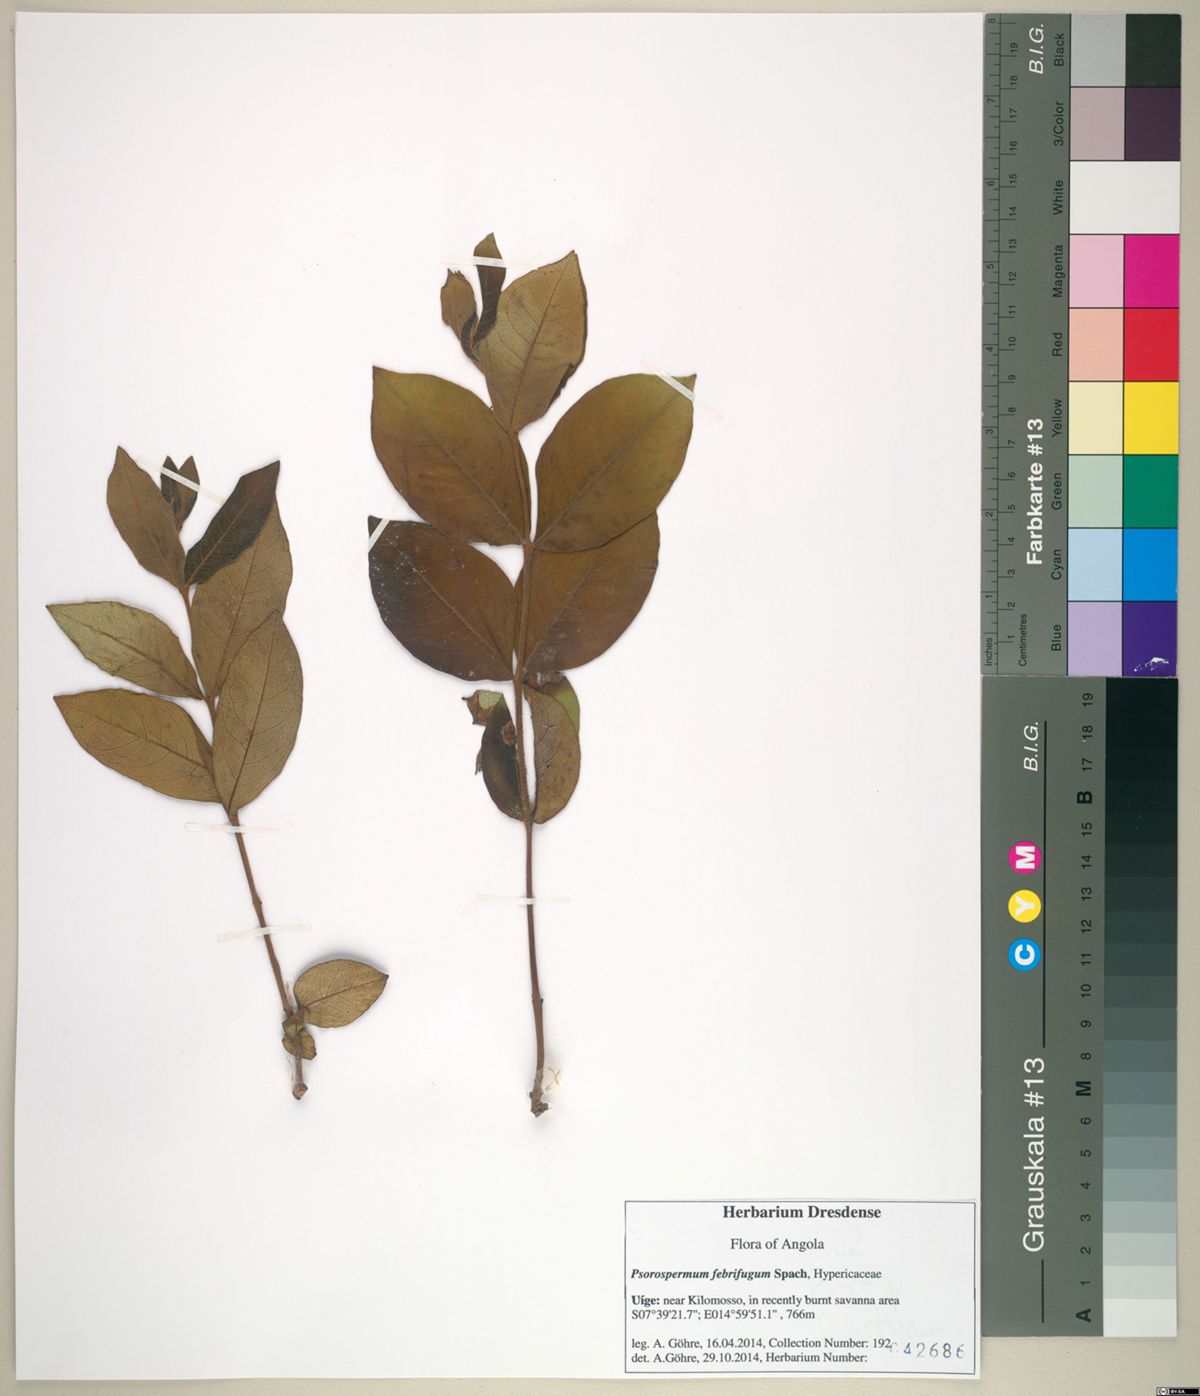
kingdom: Plantae
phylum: Tracheophyta
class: Magnoliopsida
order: Malpighiales
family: Hypericaceae
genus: Psorospermum
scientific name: Psorospermum febrifugum
